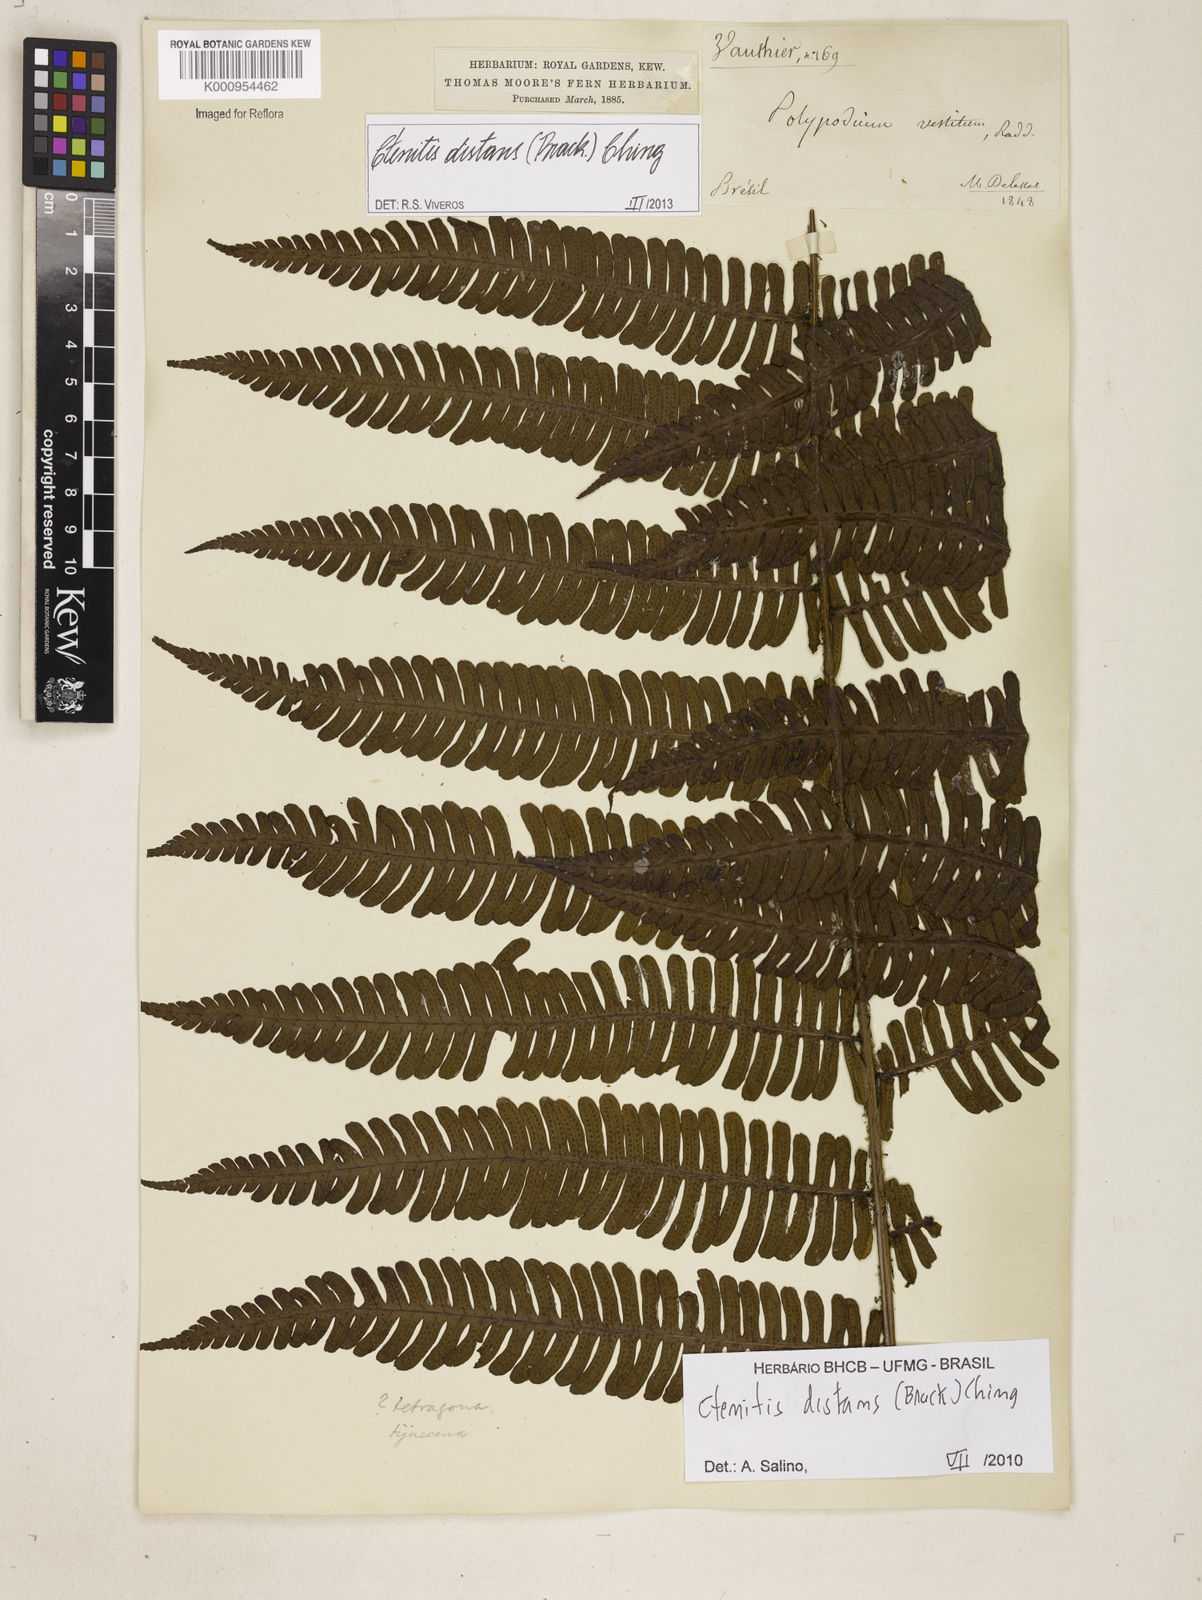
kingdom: Plantae
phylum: Tracheophyta
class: Polypodiopsida
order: Polypodiales
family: Dryopteridaceae
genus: Ctenitis
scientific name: Ctenitis distans
